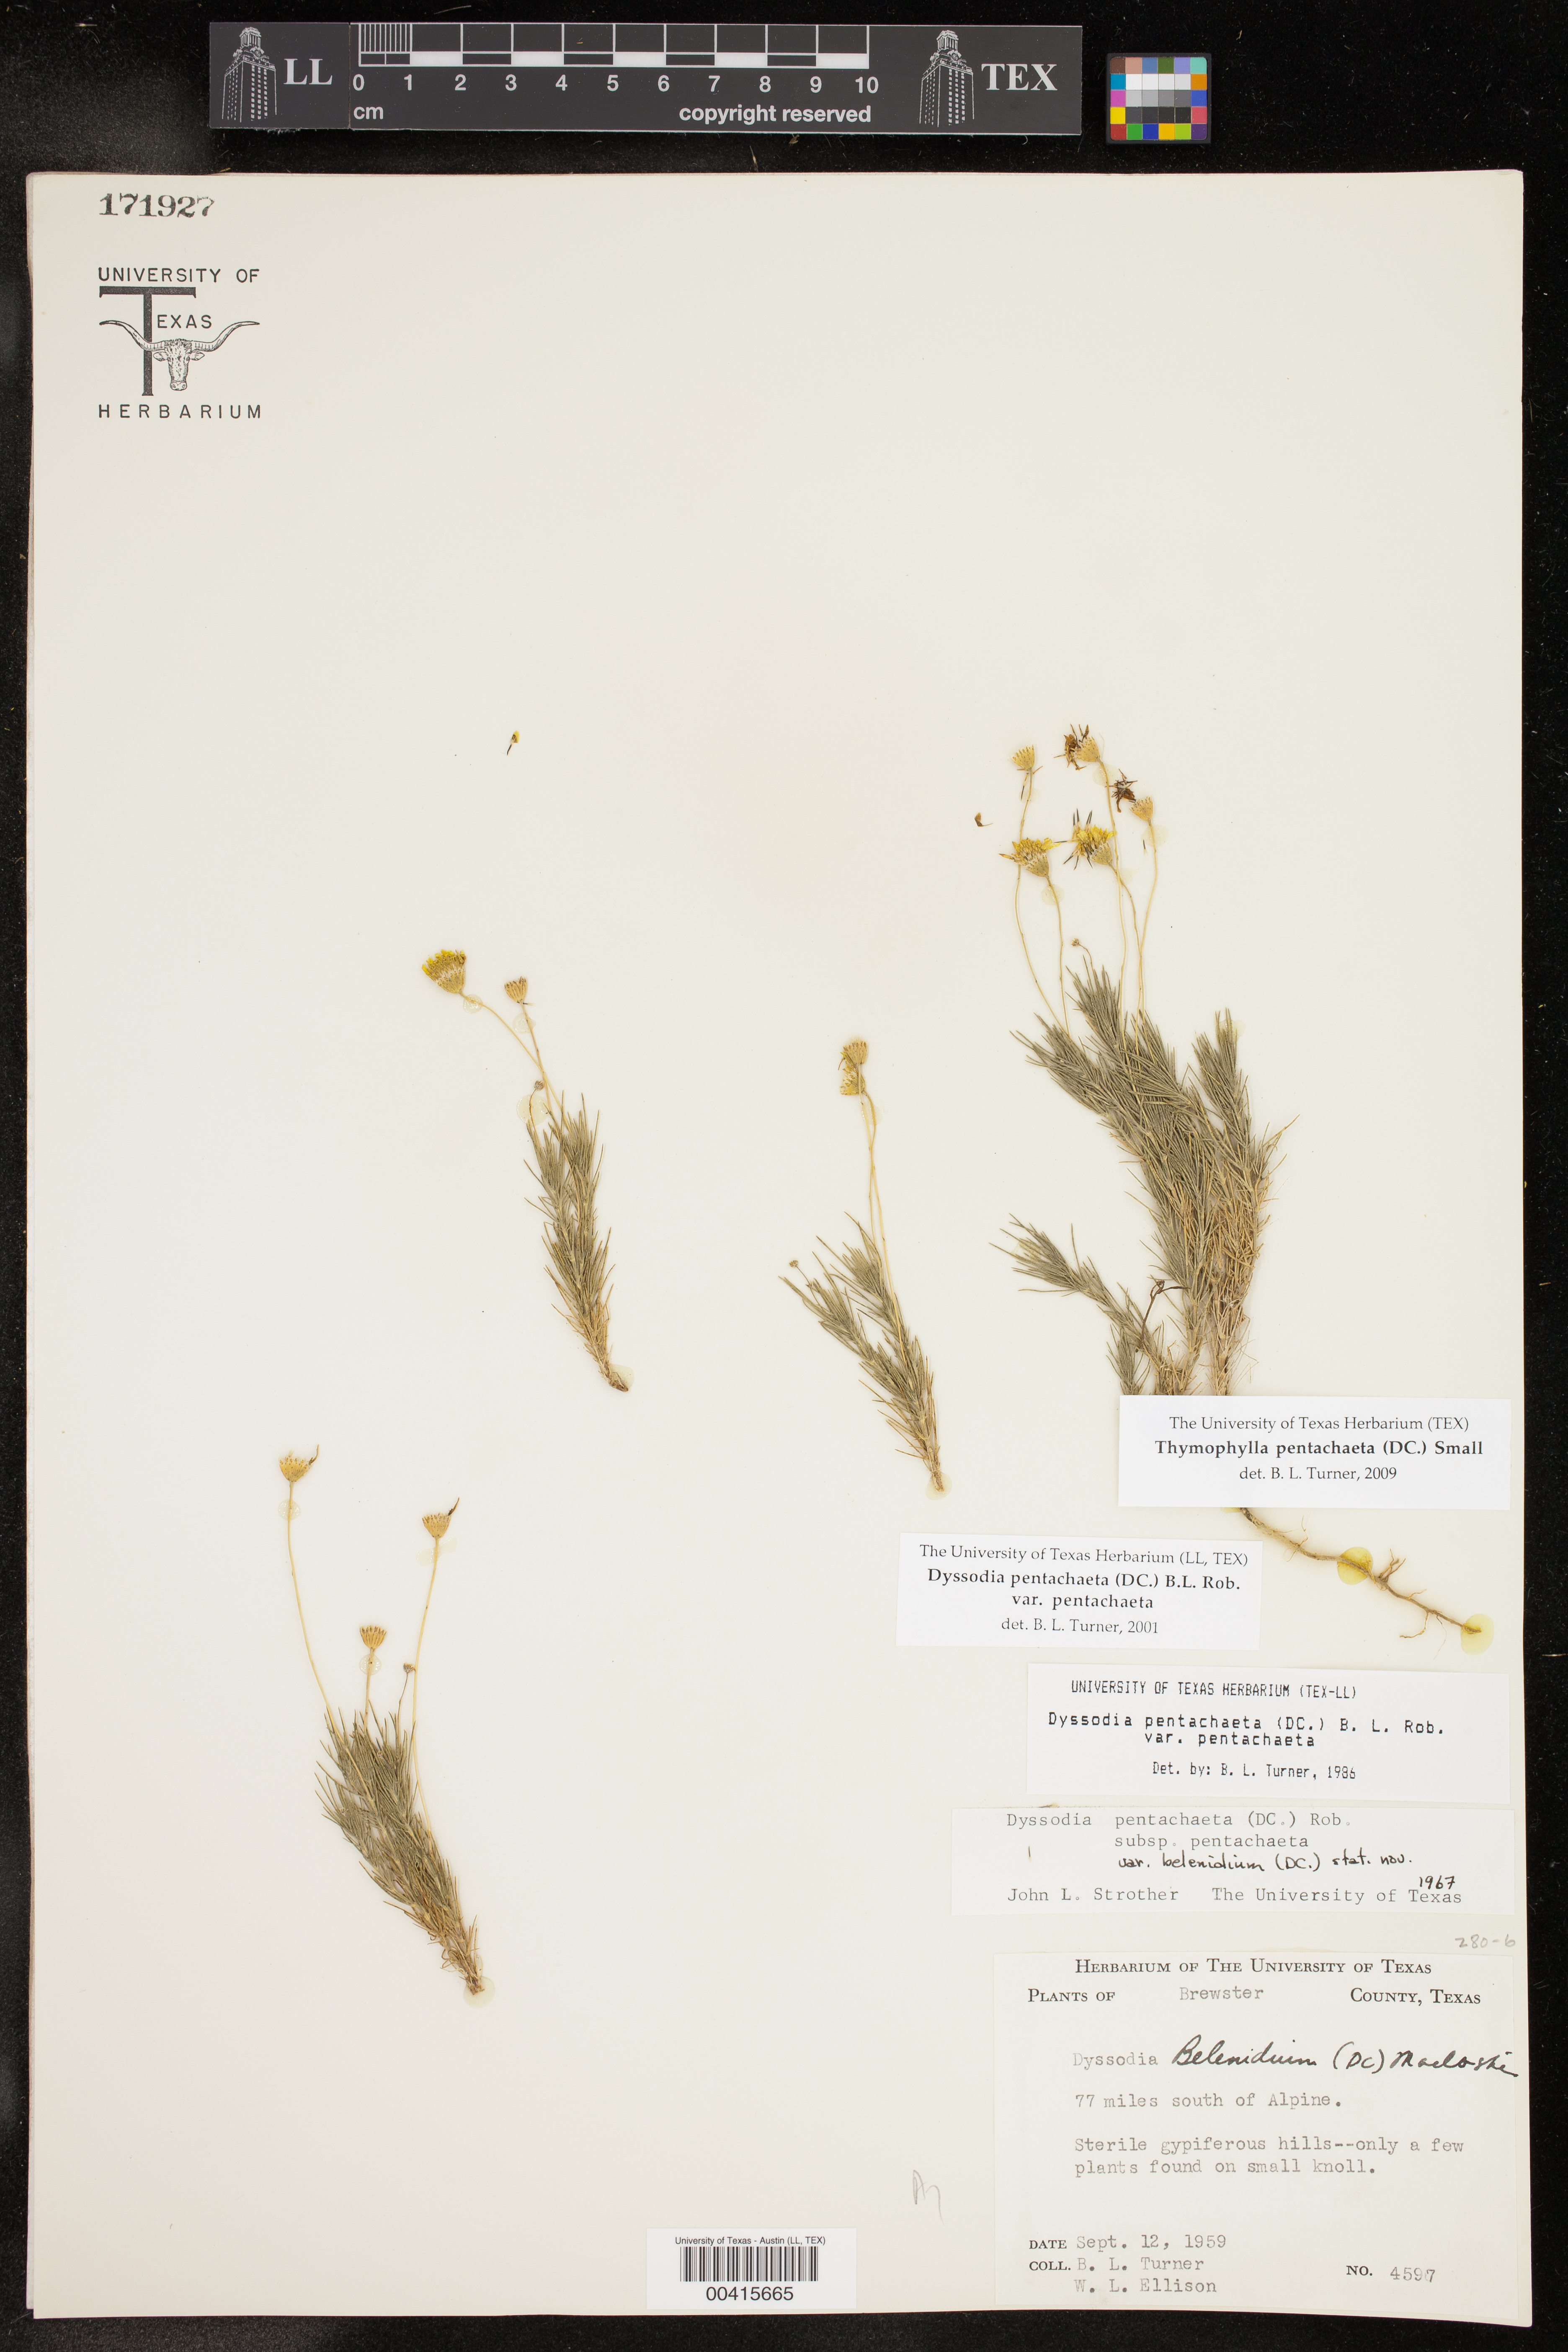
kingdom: Plantae
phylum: Tracheophyta
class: Magnoliopsida
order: Asterales
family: Asteraceae
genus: Thymophylla
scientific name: Thymophylla pentachaeta
